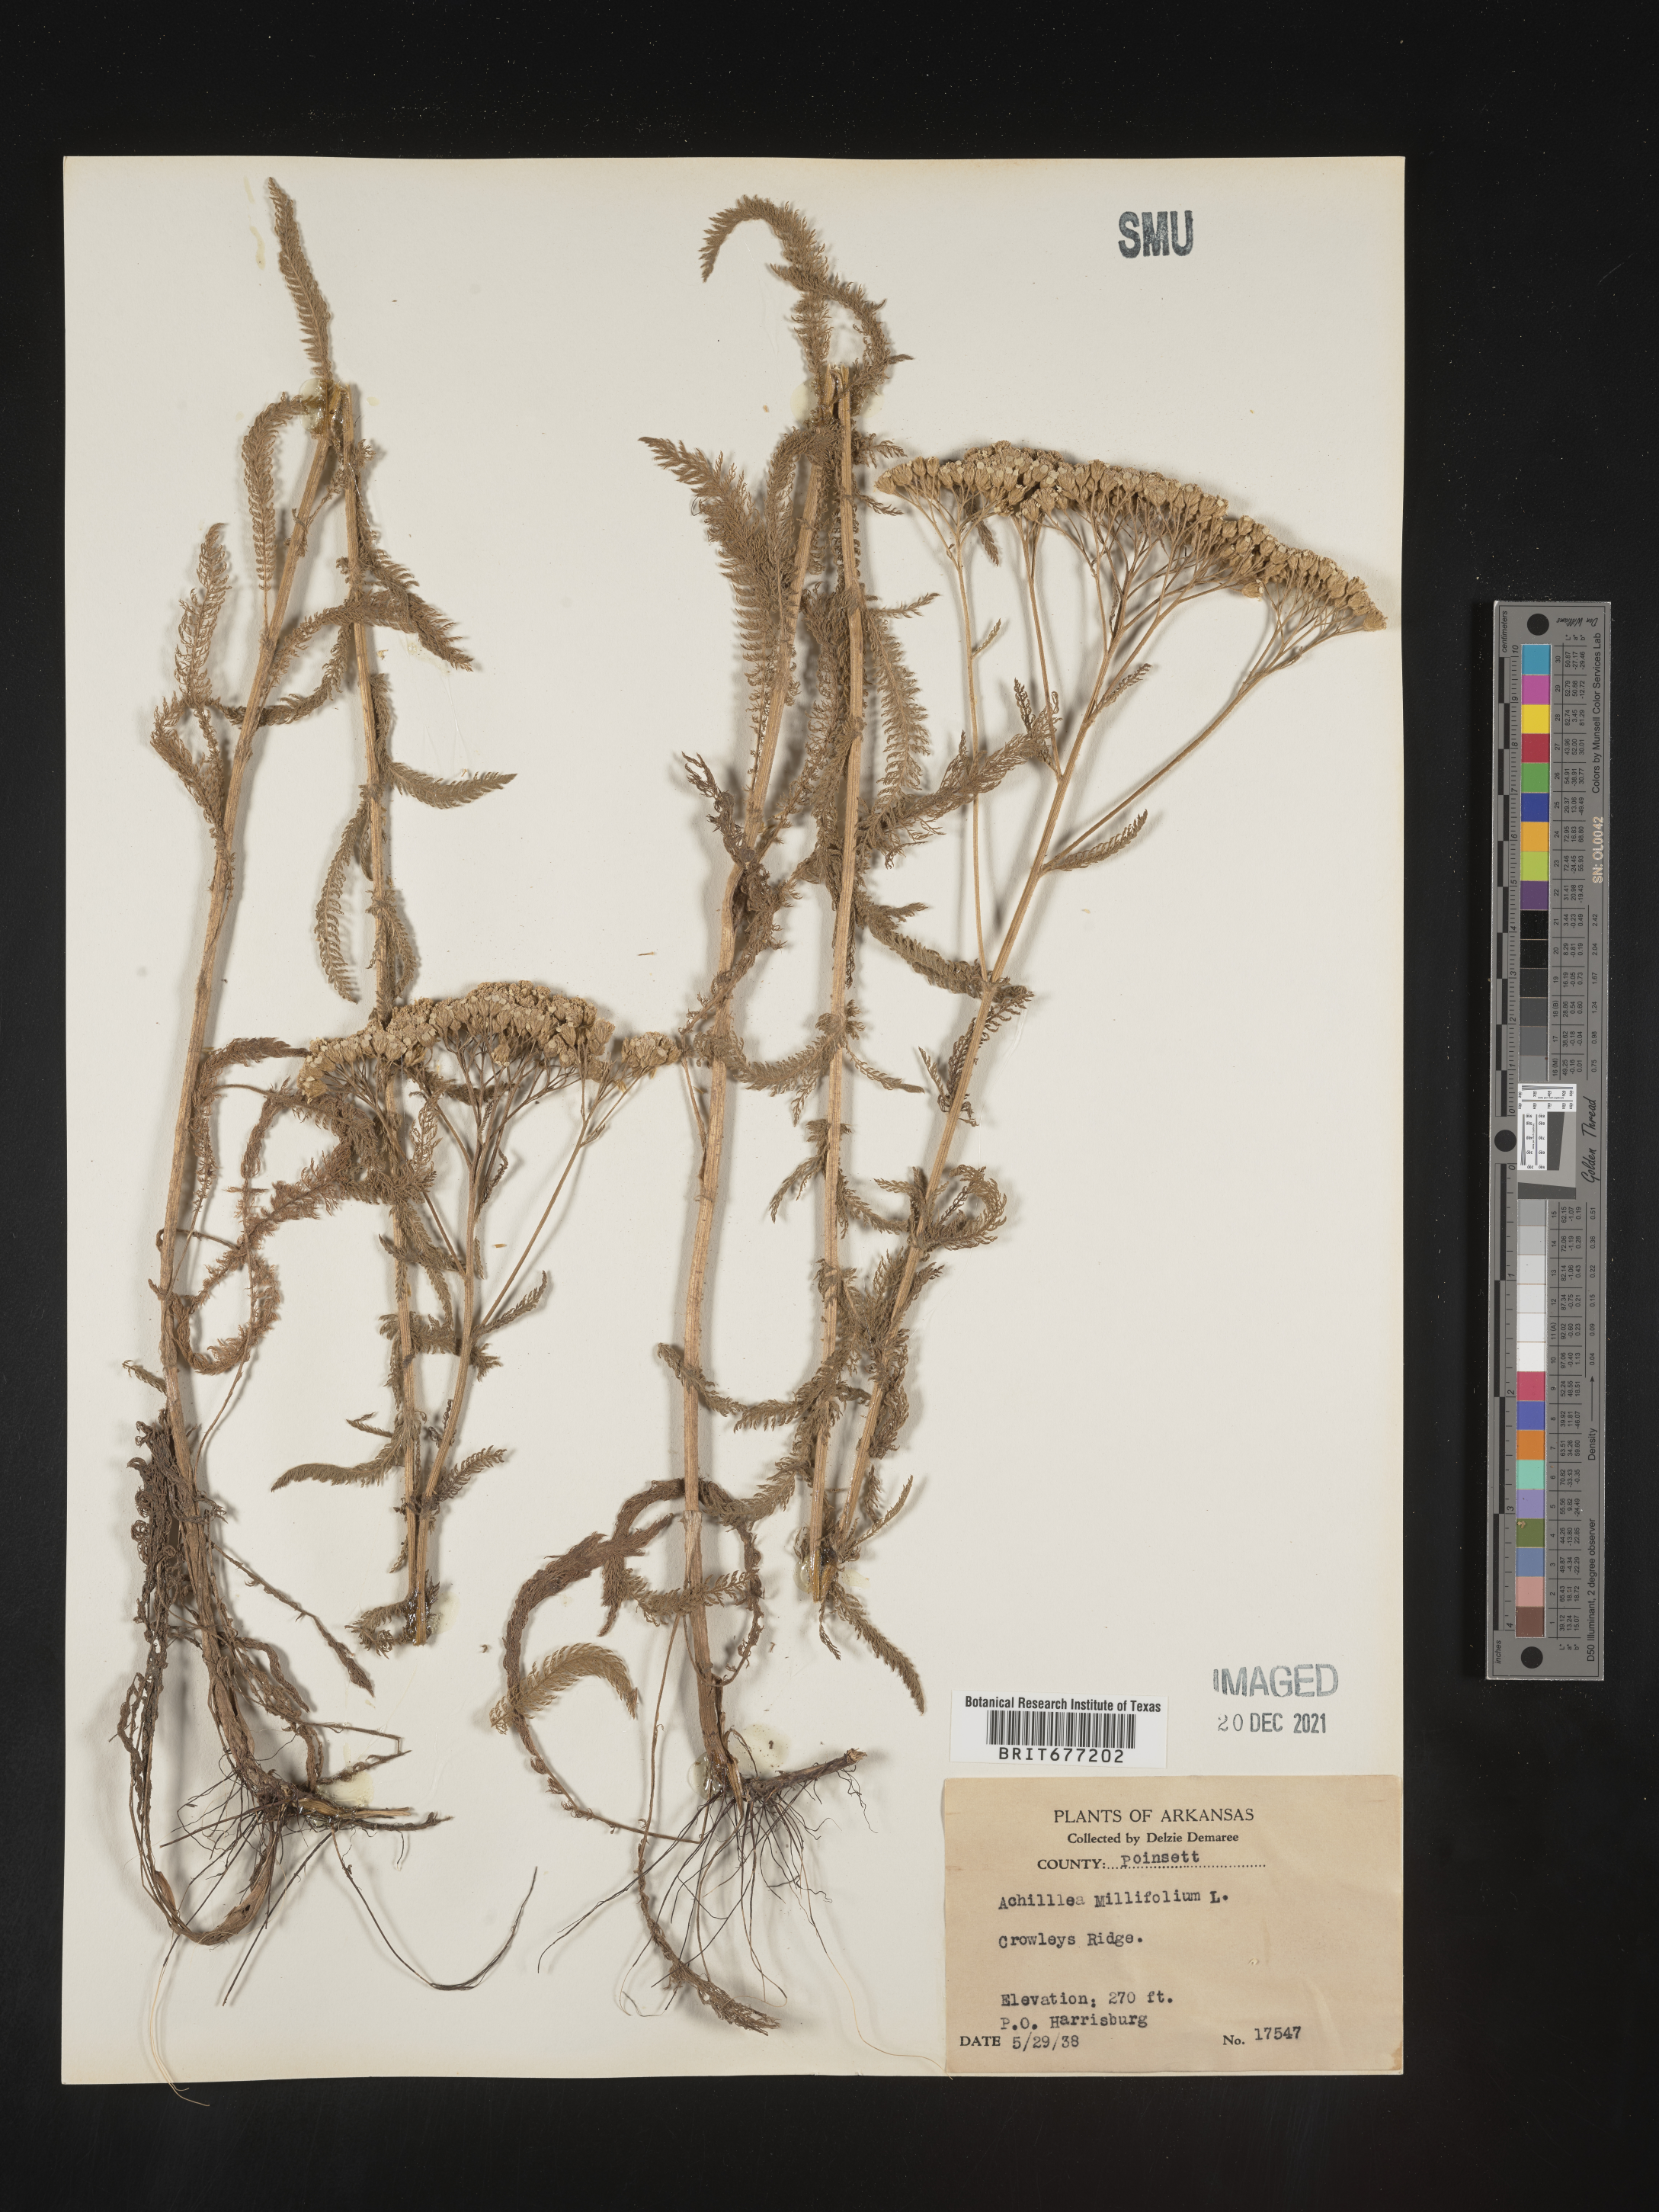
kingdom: Plantae
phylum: Tracheophyta
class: Magnoliopsida
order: Asterales
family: Asteraceae
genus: Achillea
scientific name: Achillea millefolium
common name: Yarrow
